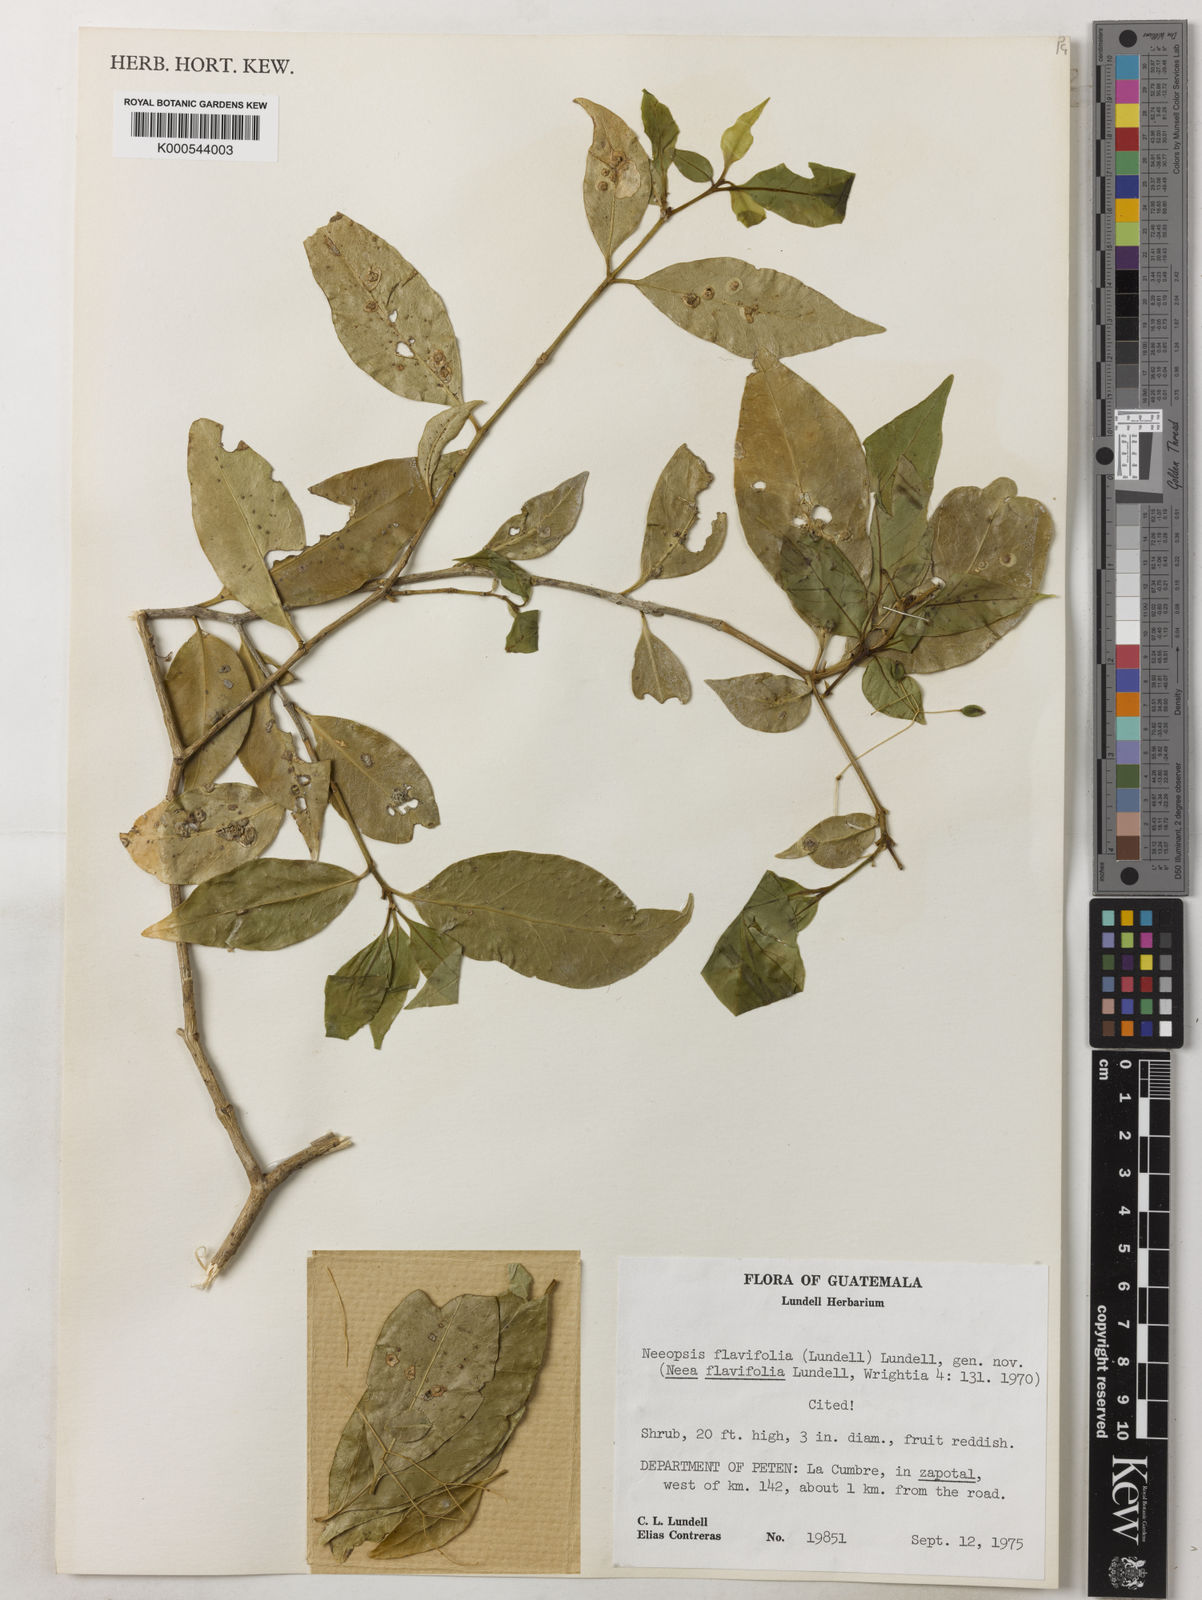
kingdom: Plantae
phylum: Tracheophyta
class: Magnoliopsida
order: Caryophyllales
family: Nyctaginaceae
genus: Neeopsis
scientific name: Neeopsis flavifolia
